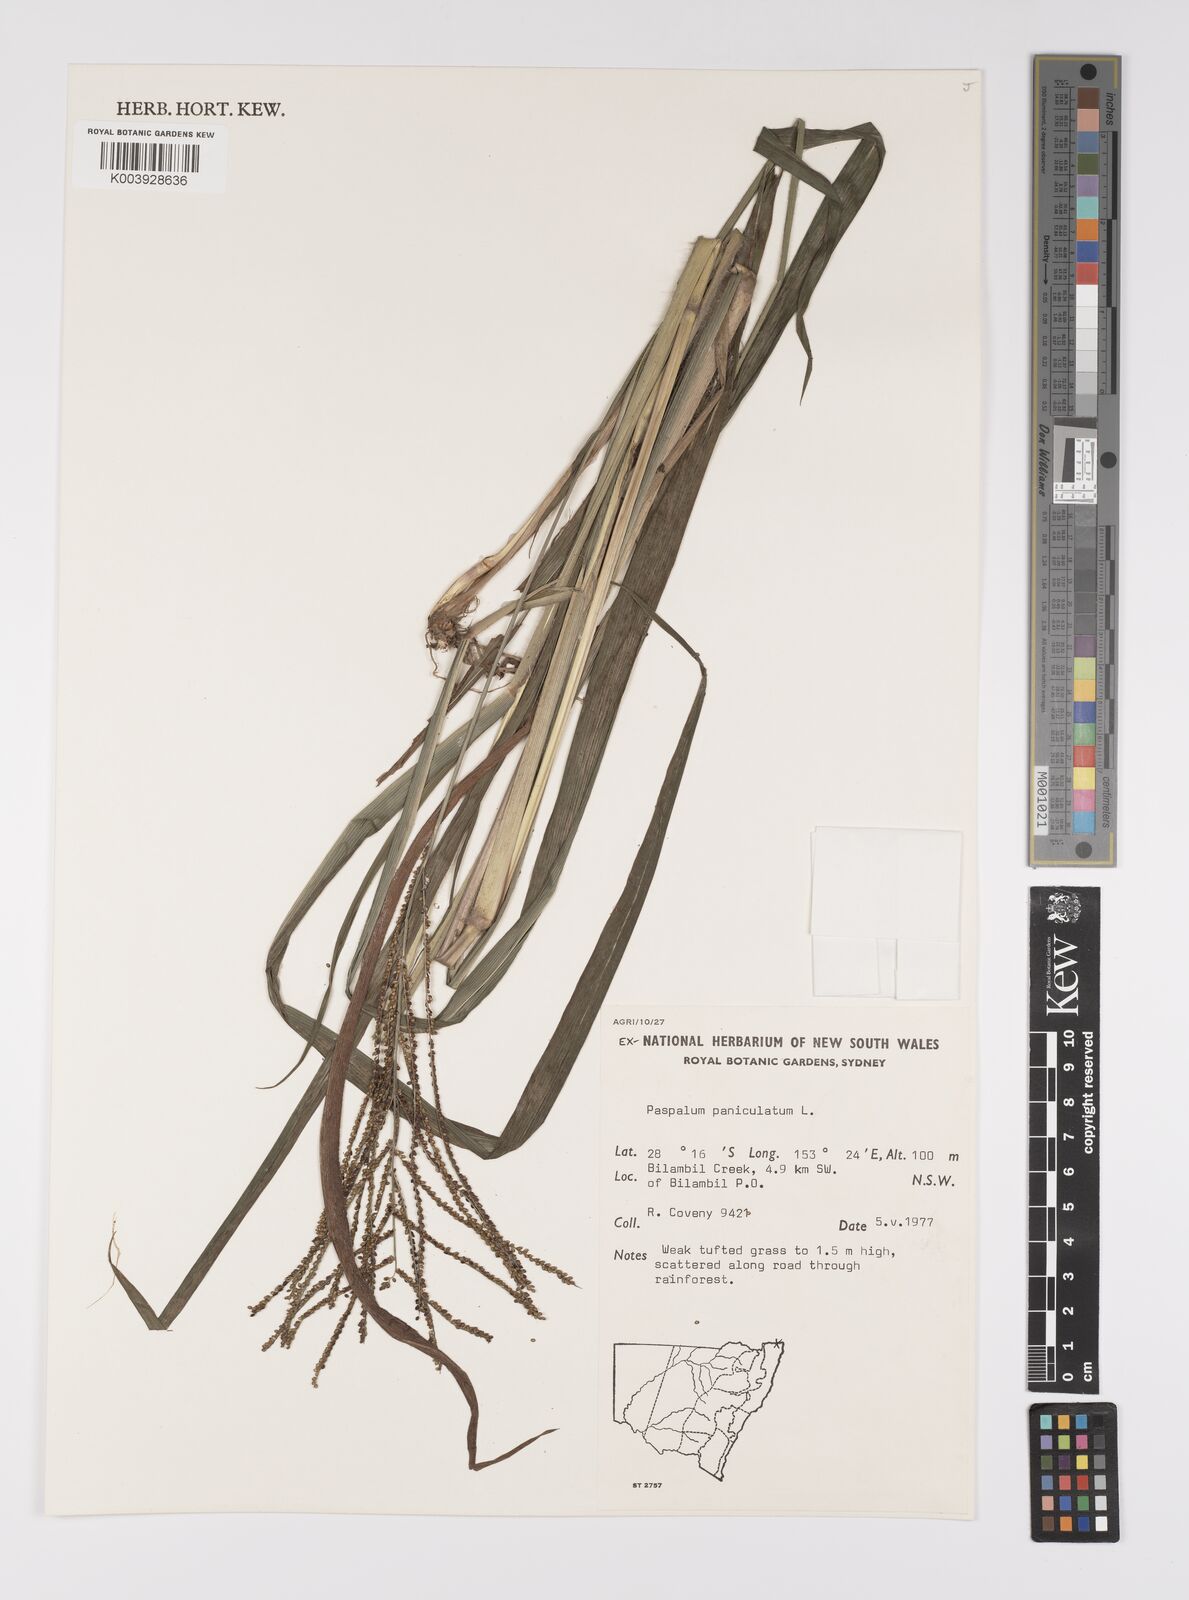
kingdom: Plantae
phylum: Tracheophyta
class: Liliopsida
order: Poales
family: Poaceae
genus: Paspalum
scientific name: Paspalum paniculatum
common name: Arrocillo
